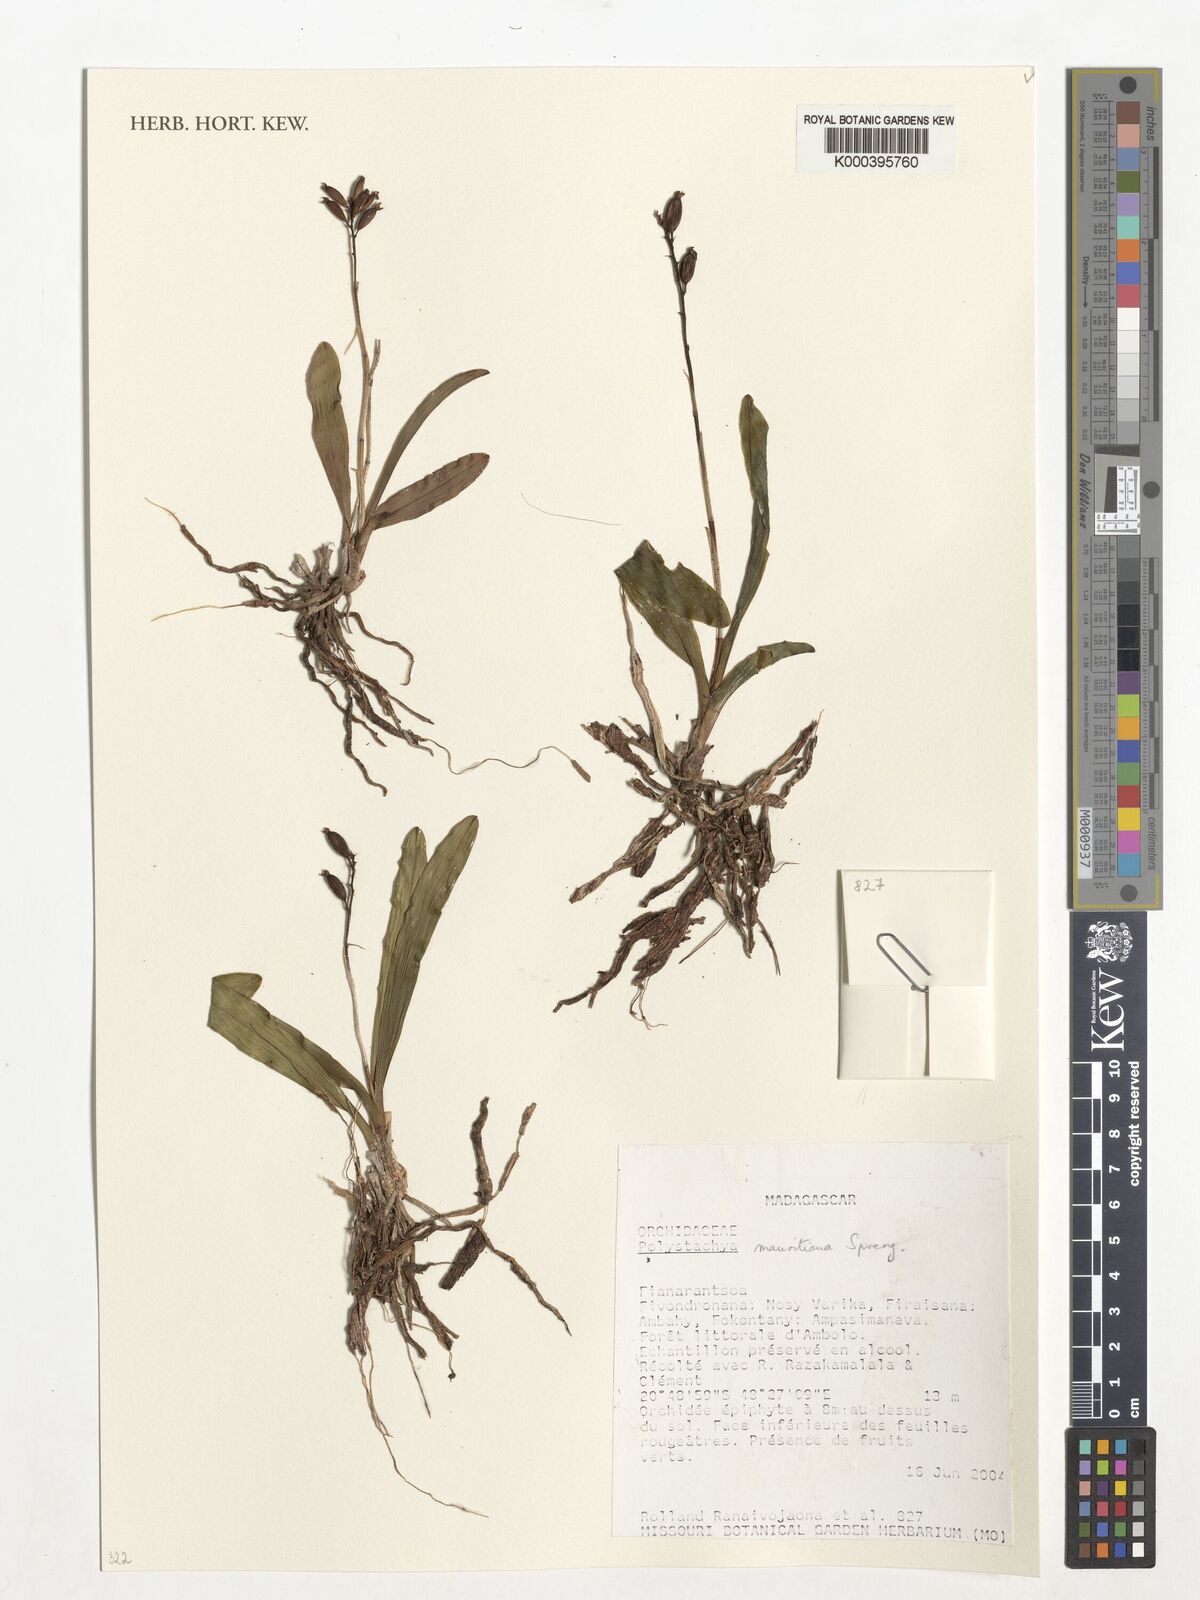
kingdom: Plantae
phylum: Tracheophyta
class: Liliopsida
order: Asparagales
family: Orchidaceae
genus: Polystachya
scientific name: Polystachya concreta
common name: Greater yellowspike orchid
